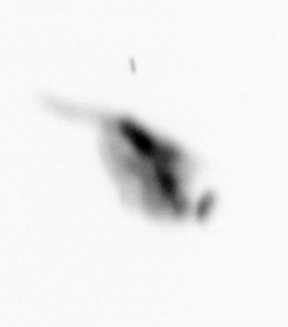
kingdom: Animalia
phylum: Arthropoda
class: Copepoda
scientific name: Copepoda
